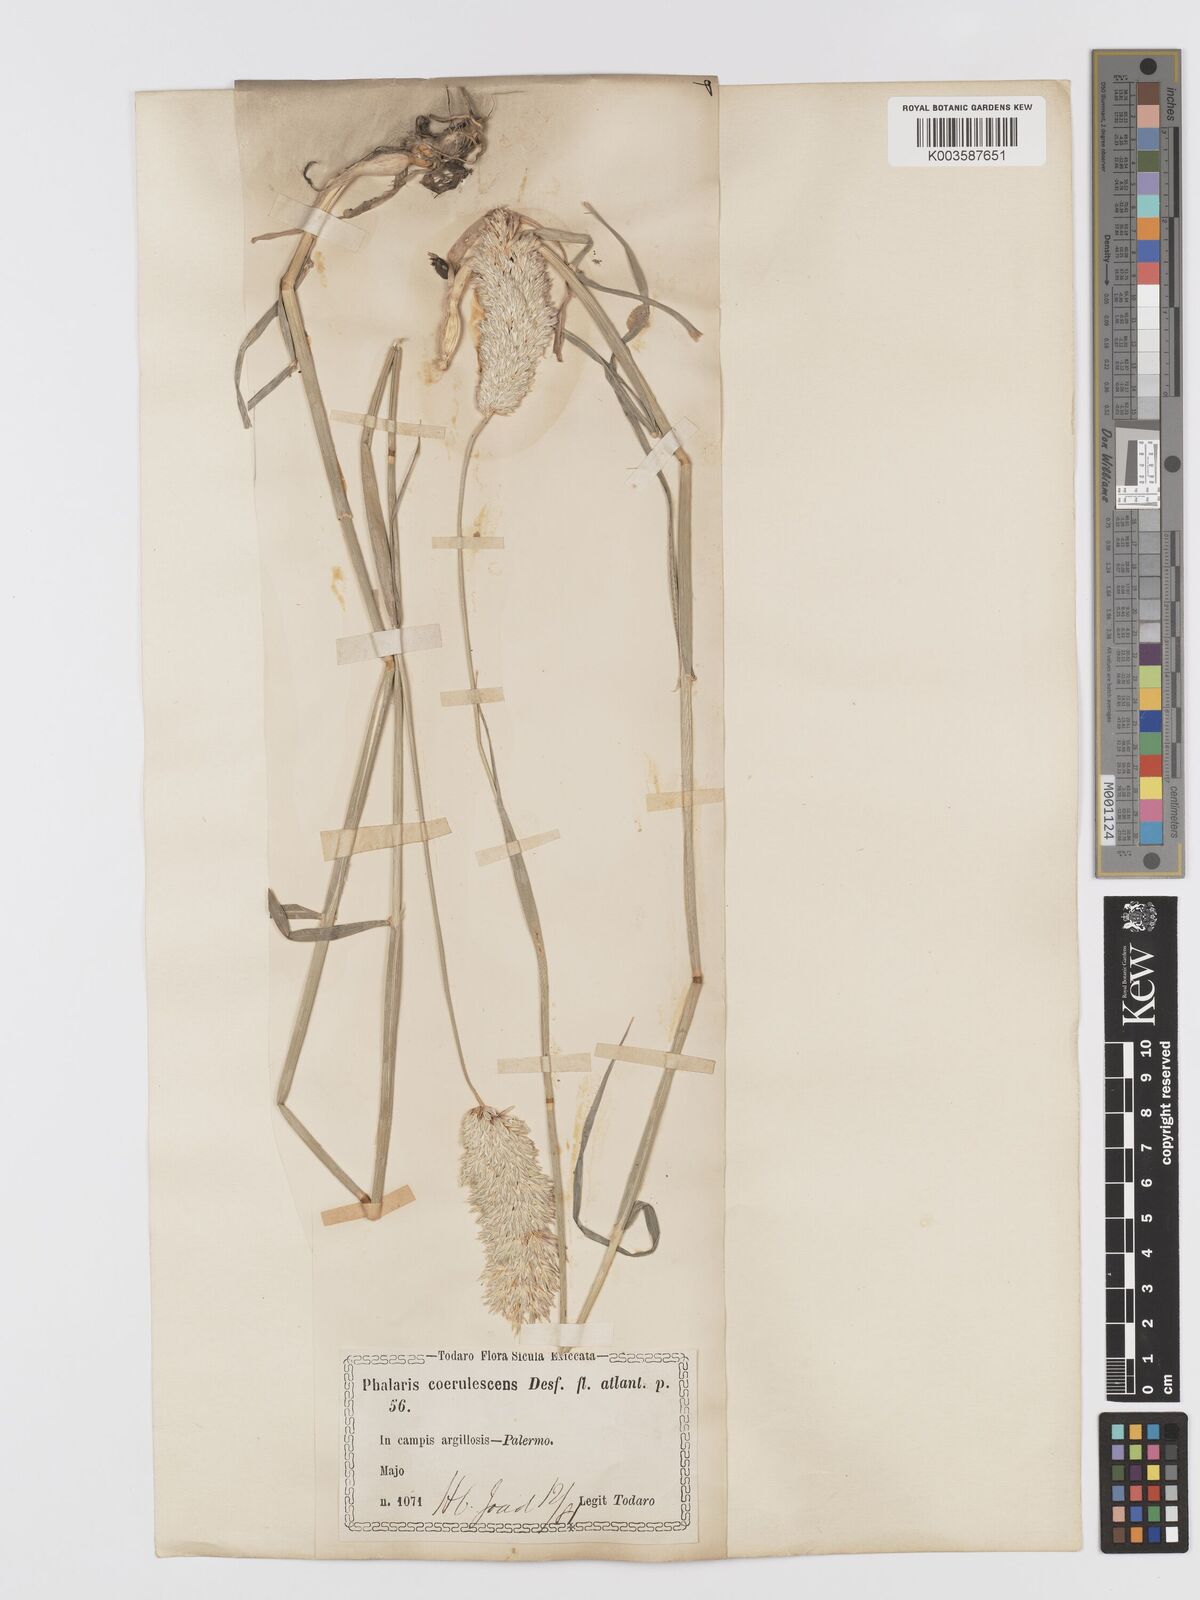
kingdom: Plantae
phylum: Tracheophyta
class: Liliopsida
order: Poales
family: Poaceae
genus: Phalaris
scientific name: Phalaris coerulescens
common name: Sunolgrass
